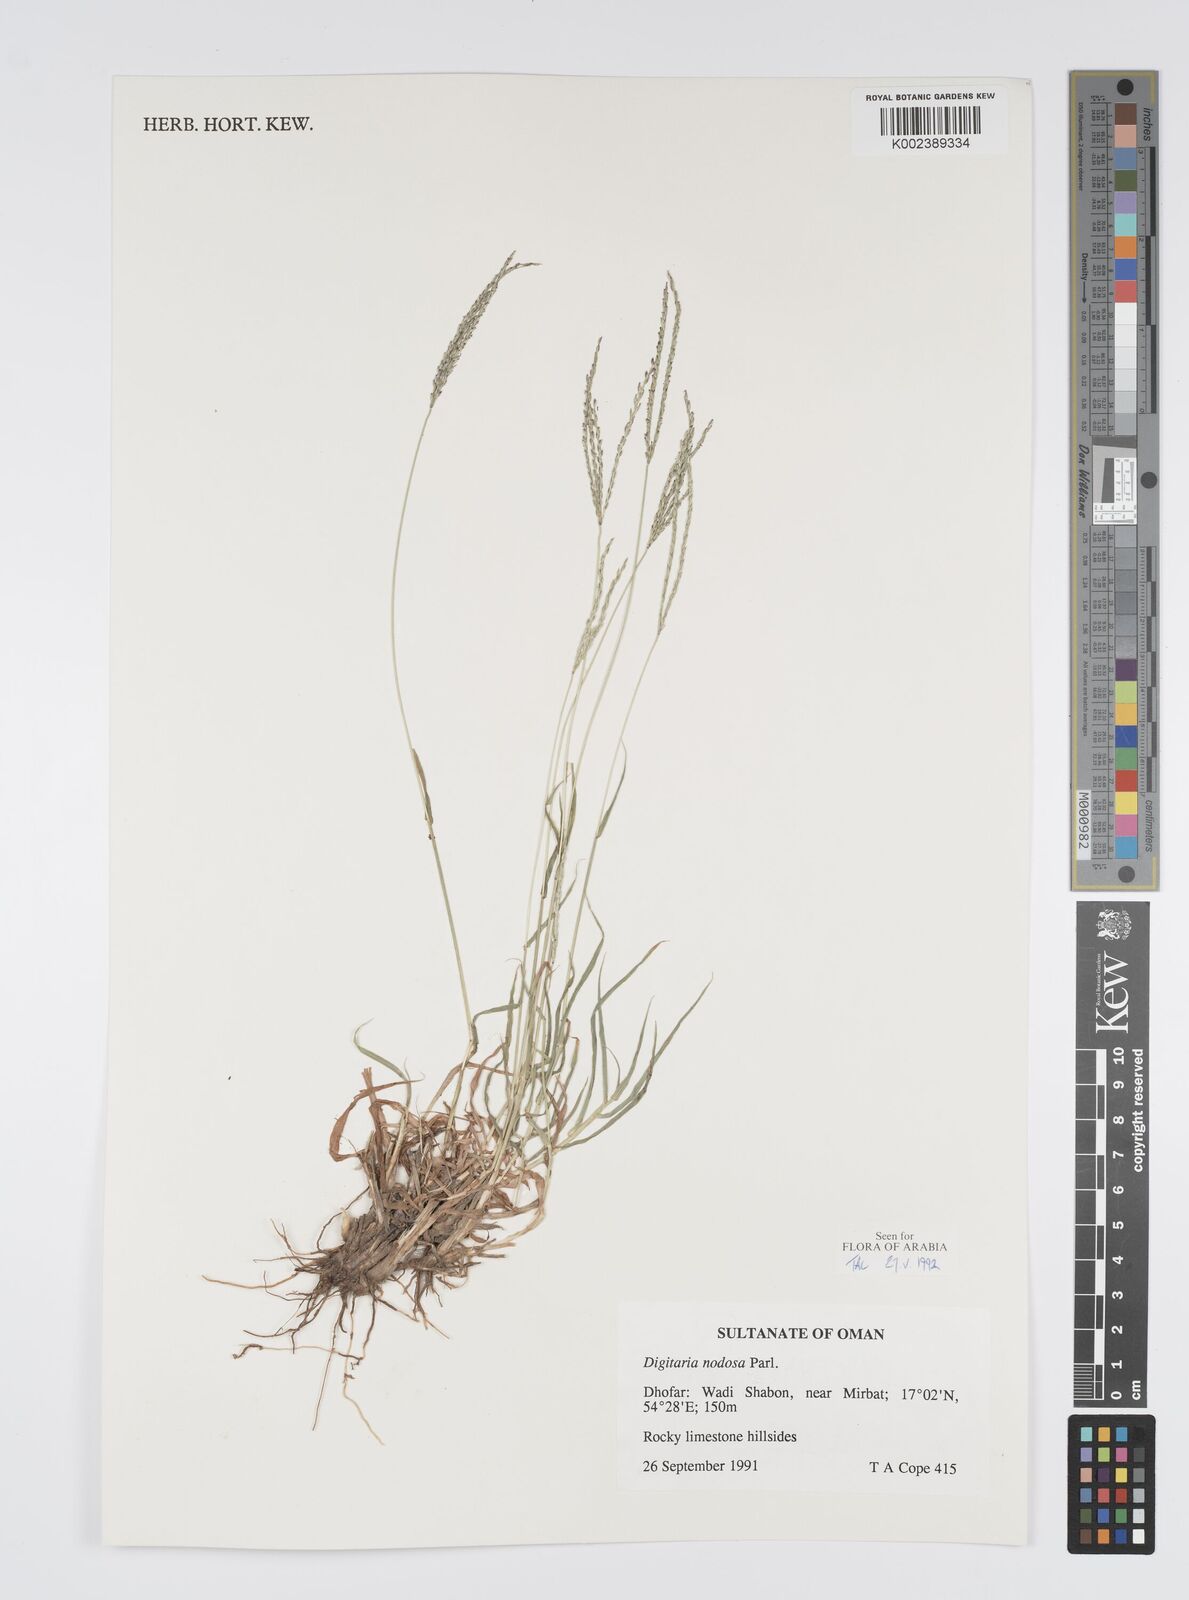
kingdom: Plantae
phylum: Tracheophyta
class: Liliopsida
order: Poales
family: Poaceae
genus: Digitaria
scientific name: Digitaria nodosa
